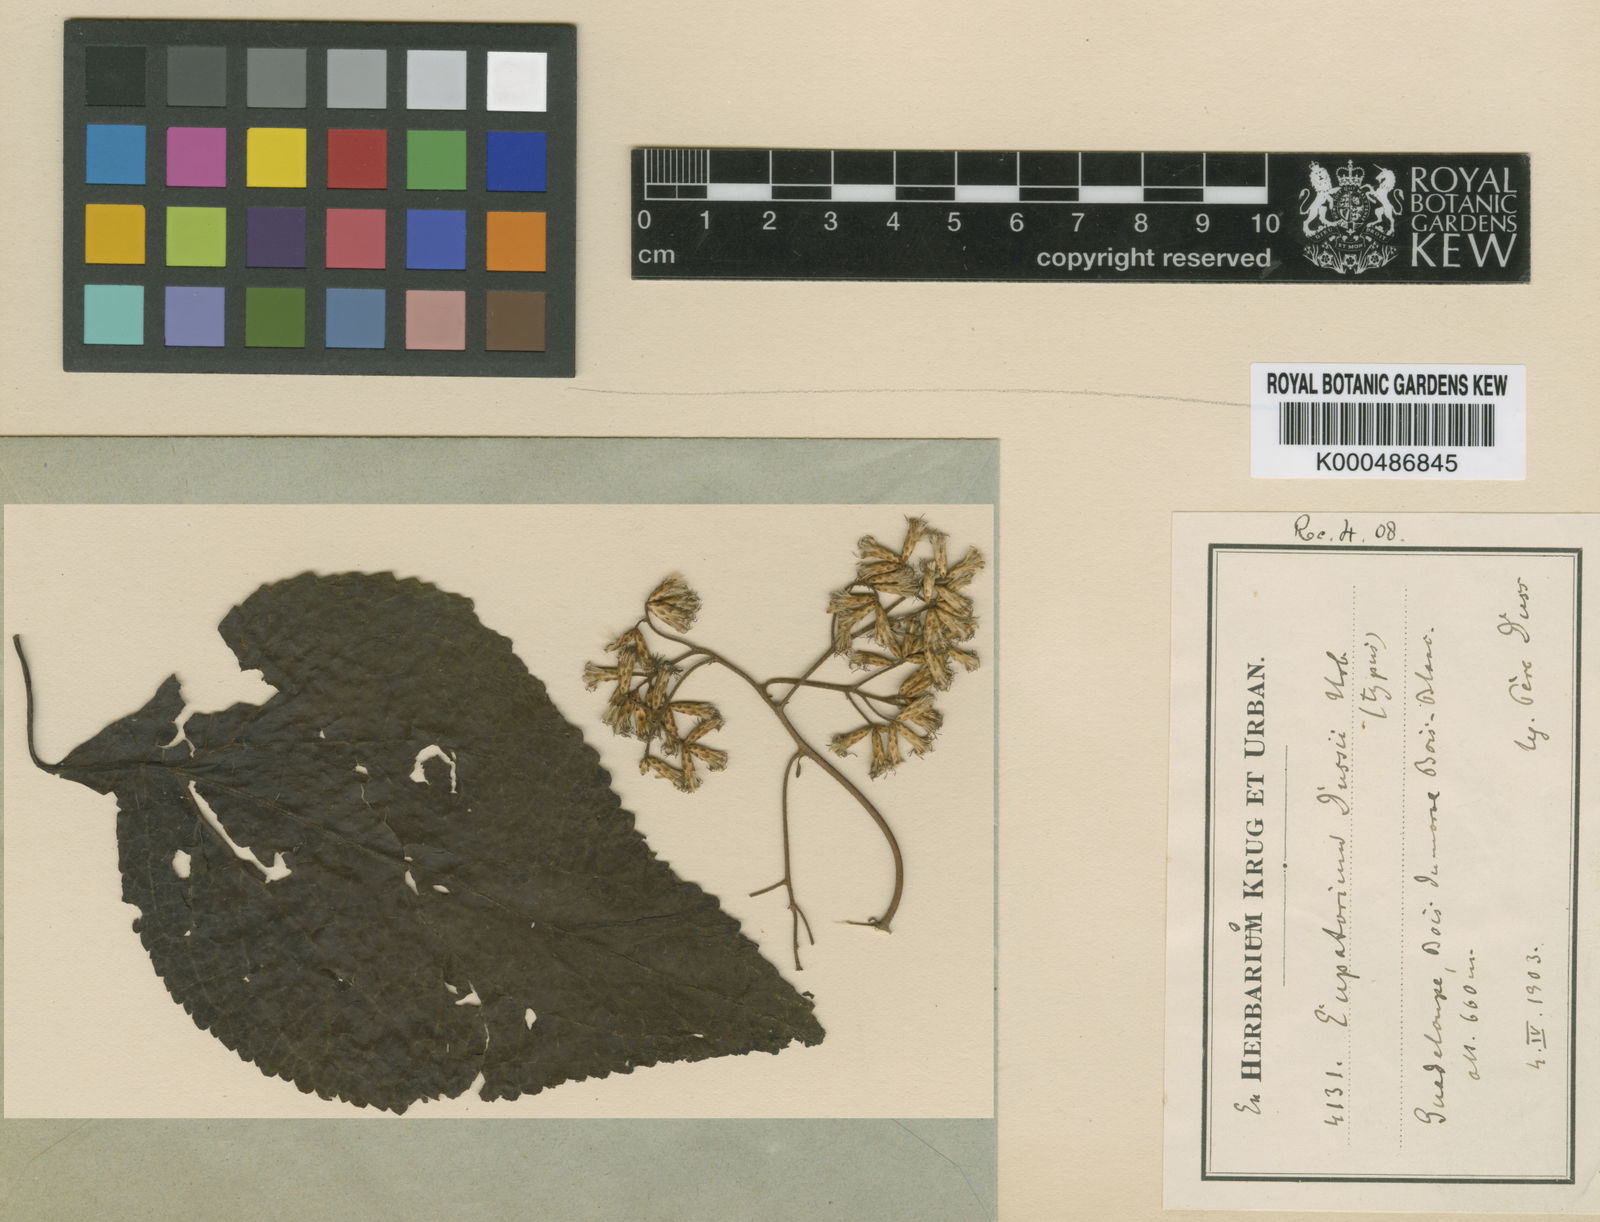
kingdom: Plantae
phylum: Tracheophyta
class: Magnoliopsida
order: Asterales
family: Asteraceae
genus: Chromolaena
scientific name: Chromolaena dussii
